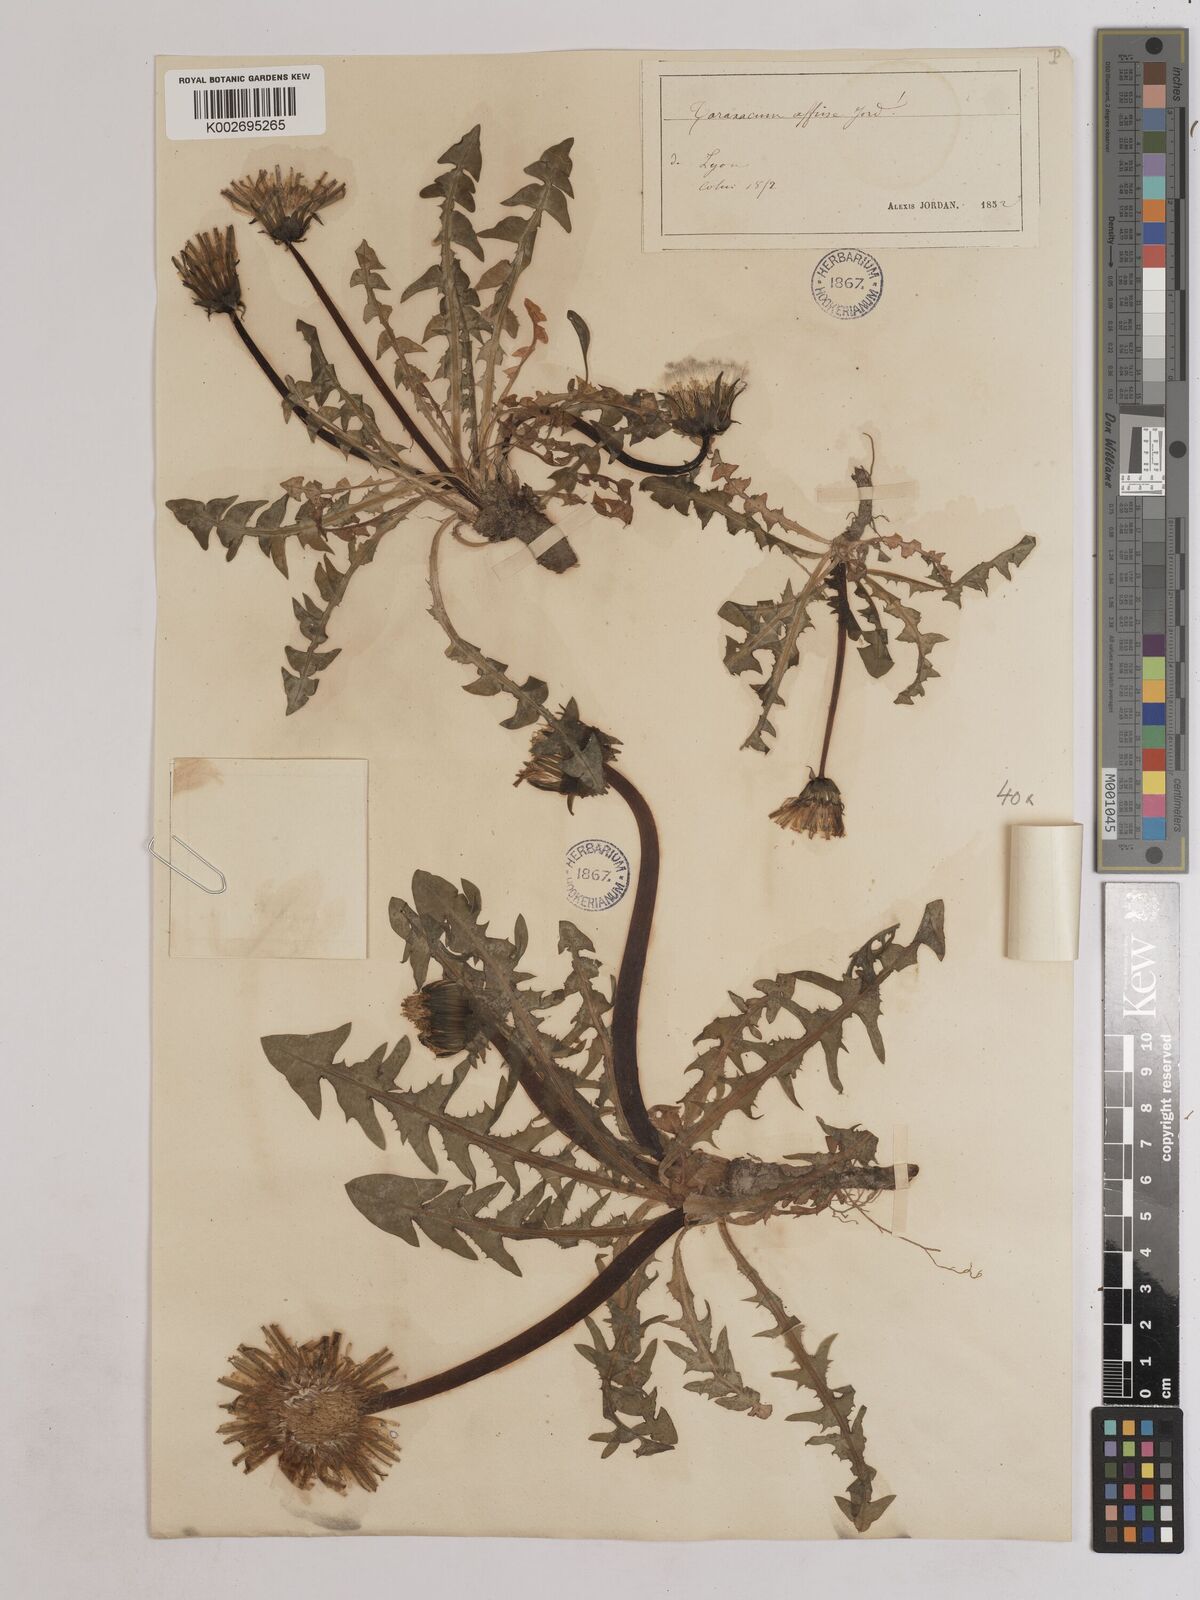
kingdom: Plantae
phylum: Tracheophyta
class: Magnoliopsida
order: Asterales
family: Asteraceae
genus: Taraxacum
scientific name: Taraxacum officinale
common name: Common dandelion
